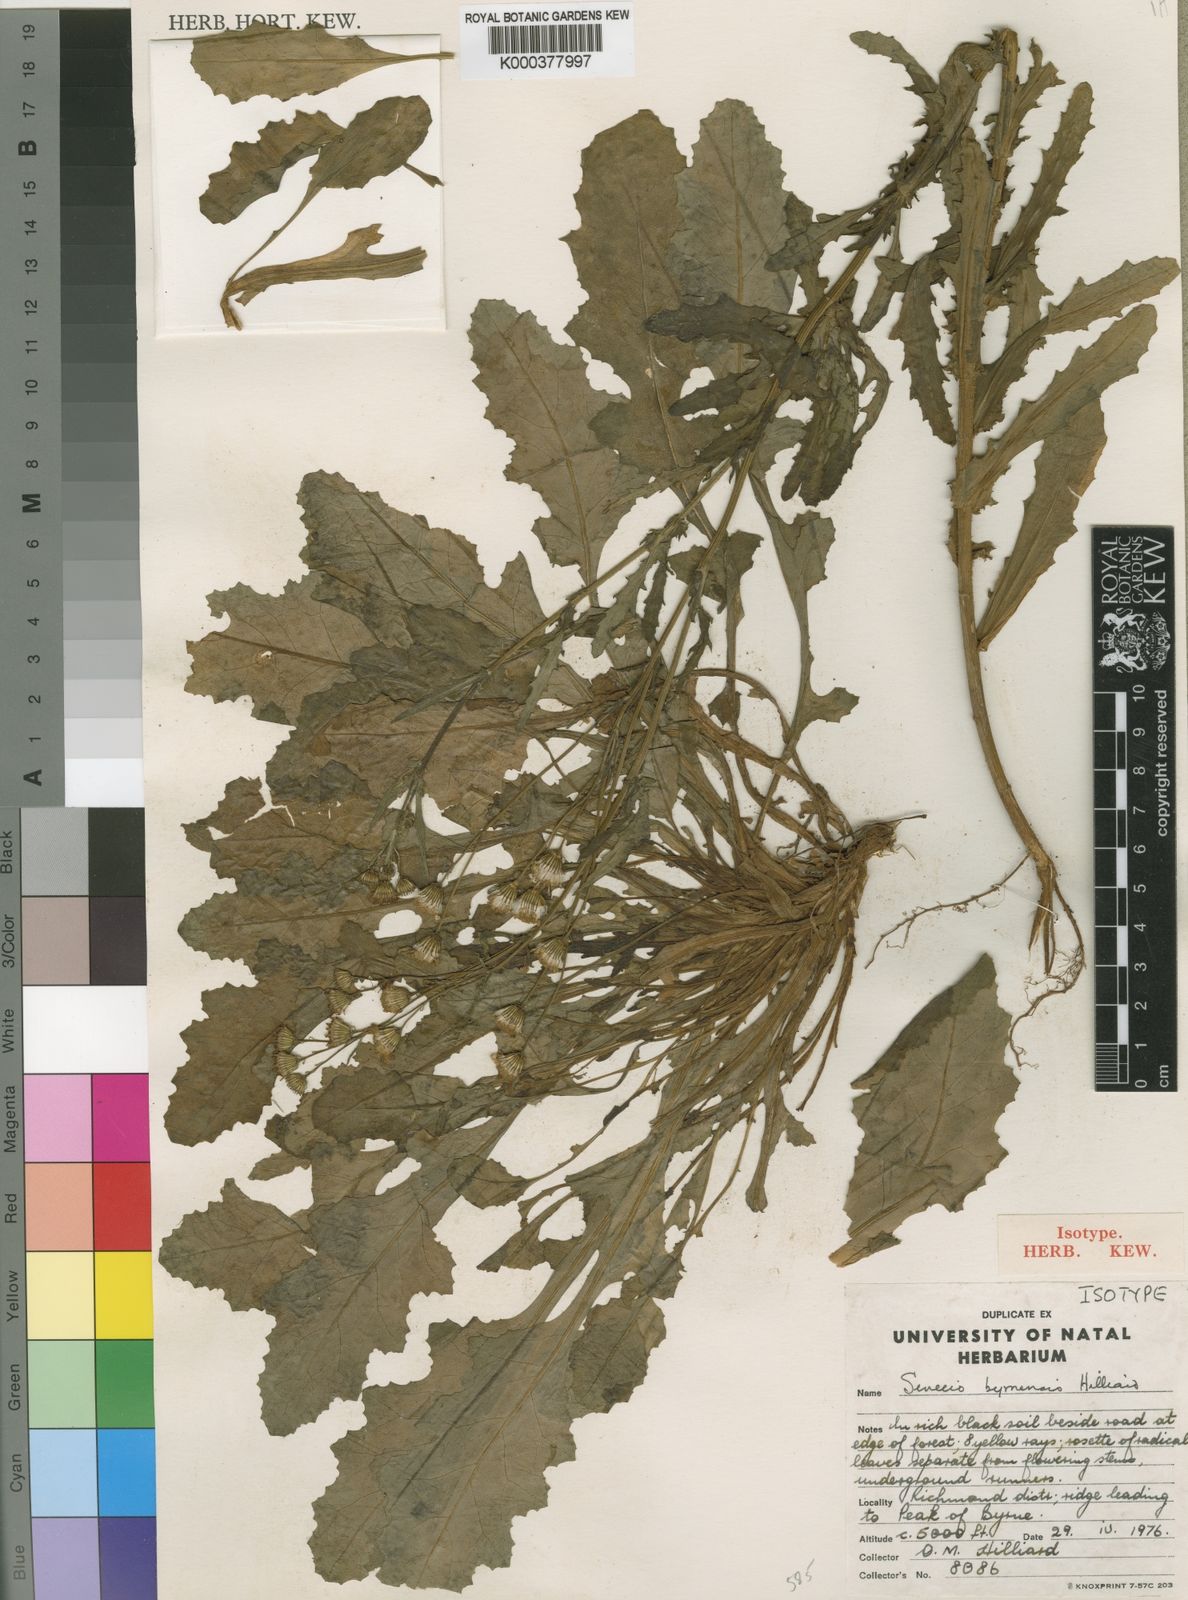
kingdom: Plantae
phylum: Tracheophyta
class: Magnoliopsida
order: Asterales
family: Asteraceae
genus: Senecio
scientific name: Senecio byrnensis
